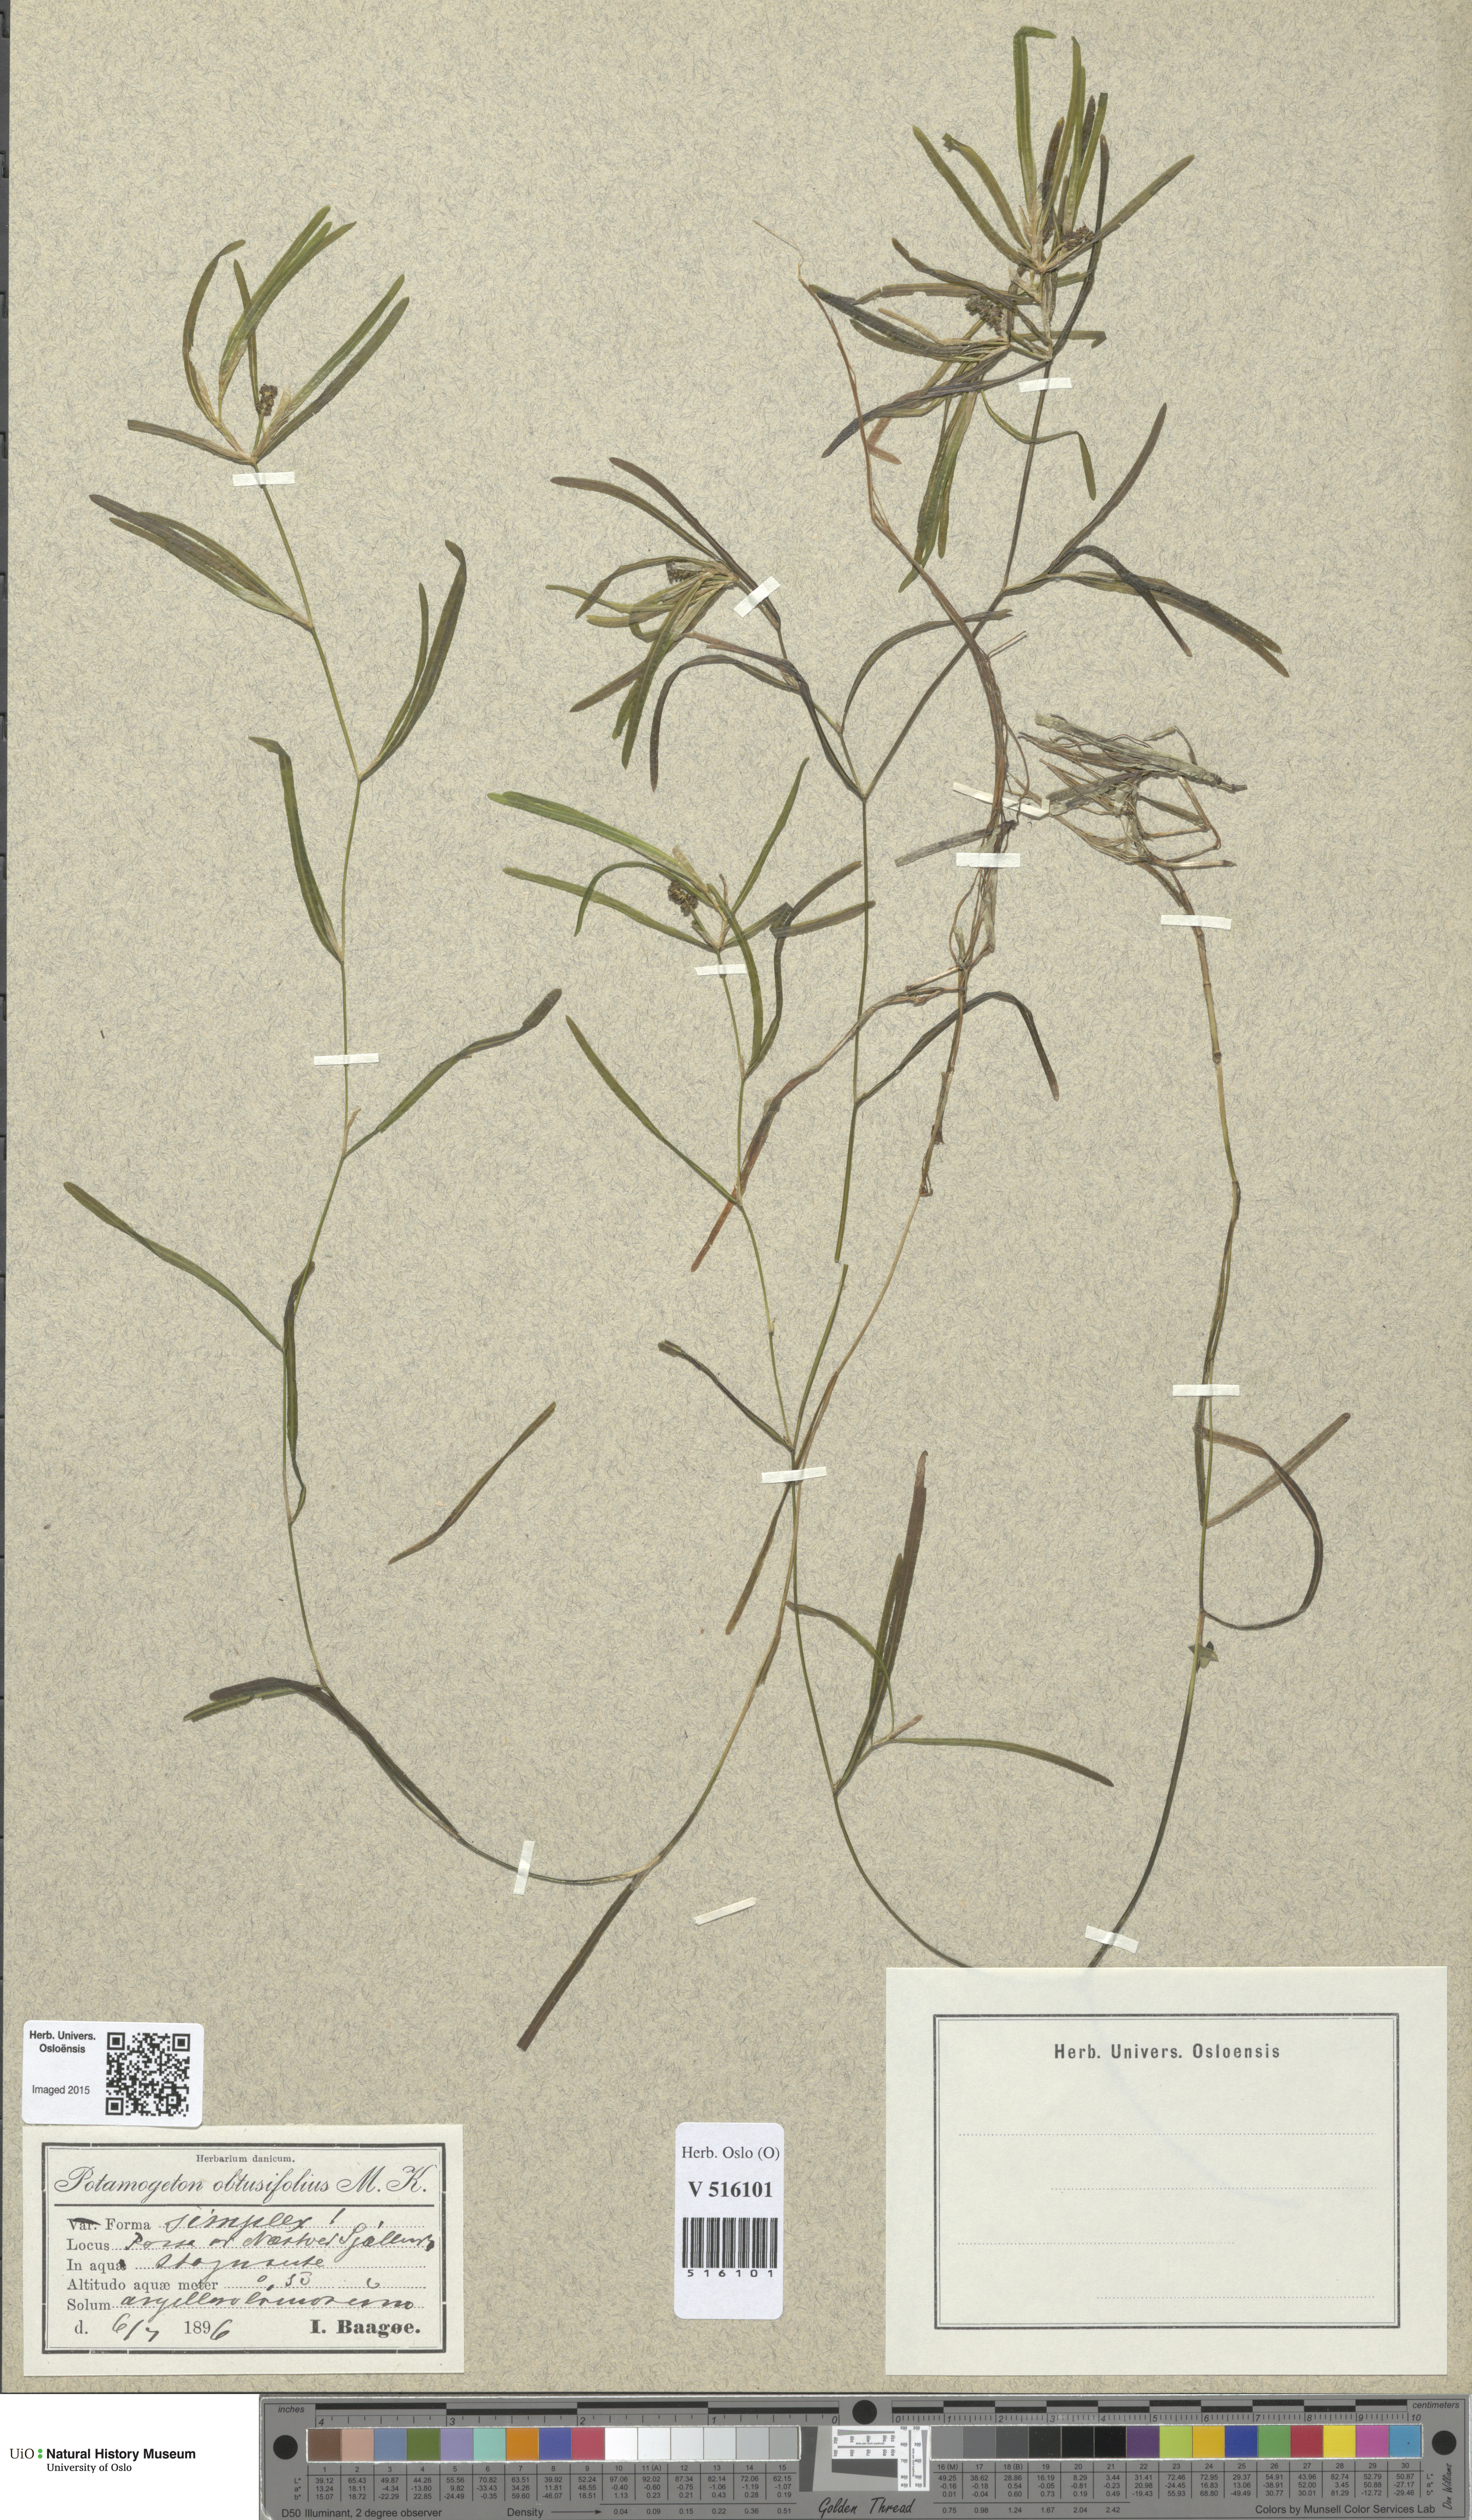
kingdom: Plantae
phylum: Tracheophyta
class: Liliopsida
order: Alismatales
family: Potamogetonaceae
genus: Potamogeton
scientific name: Potamogeton obtusifolius
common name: Blunt-leaved pondweed
